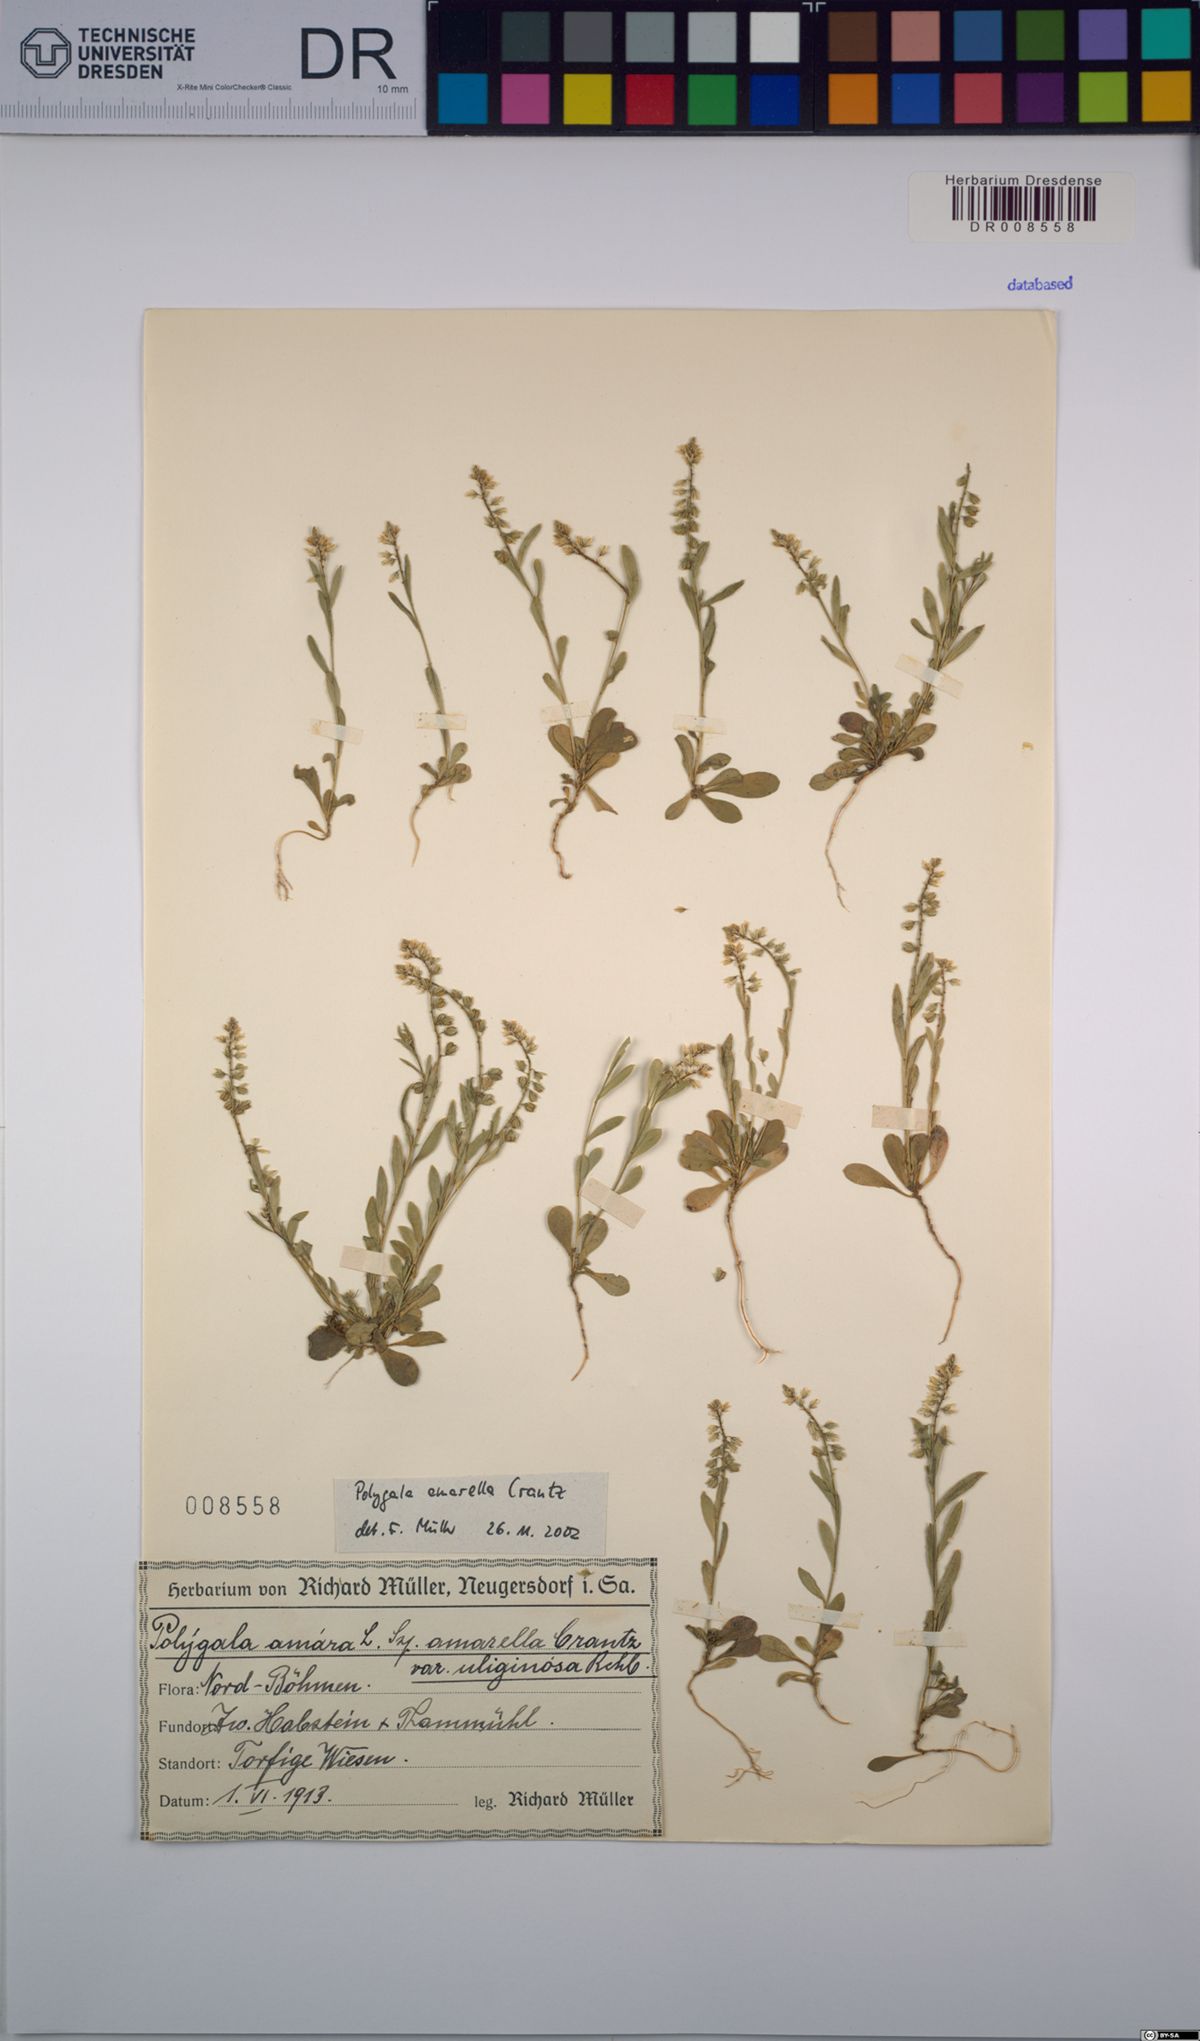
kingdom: Plantae
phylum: Tracheophyta
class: Magnoliopsida
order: Fabales
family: Polygalaceae
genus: Polygala
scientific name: Polygala amarella
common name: Dwarf milkwort
